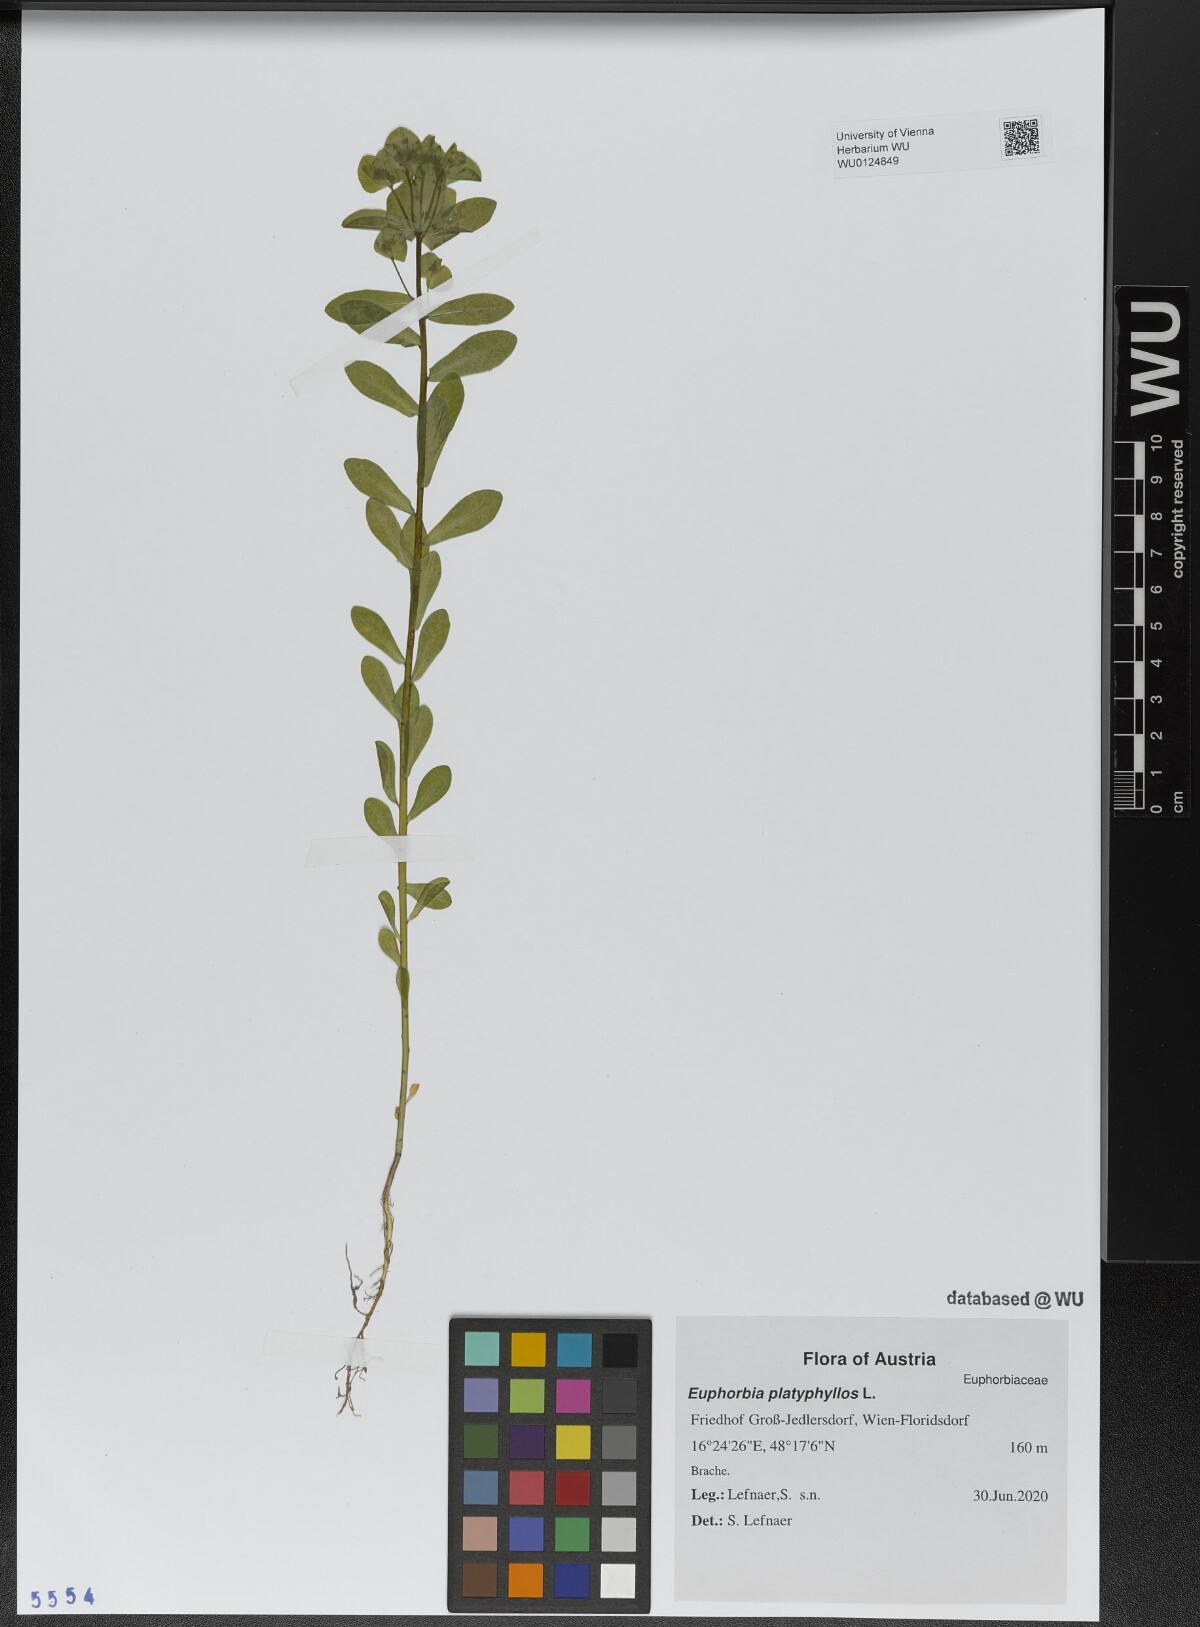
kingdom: Plantae
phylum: Tracheophyta
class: Magnoliopsida
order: Malpighiales
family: Euphorbiaceae
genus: Euphorbia
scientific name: Euphorbia platyphyllos
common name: Broad-leaved spurge
